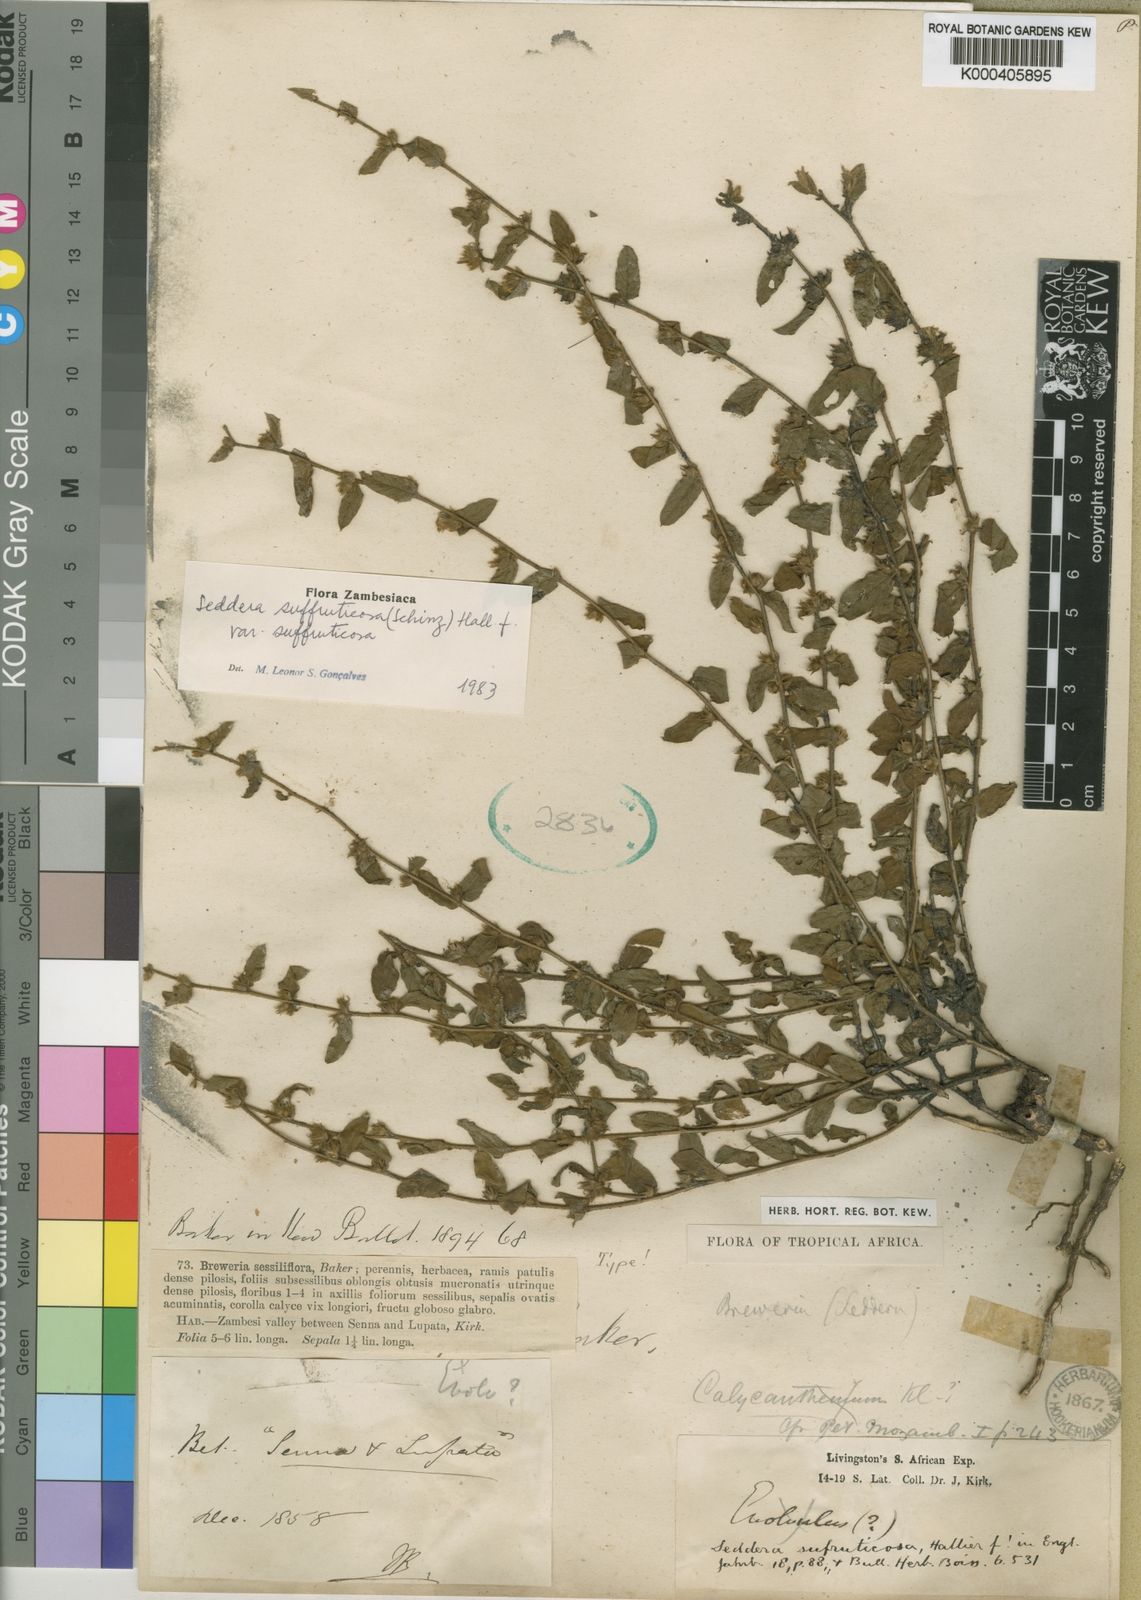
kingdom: Plantae
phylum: Tracheophyta
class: Magnoliopsida
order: Solanales
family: Convolvulaceae
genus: Seddera
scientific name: Seddera suffruticosa
